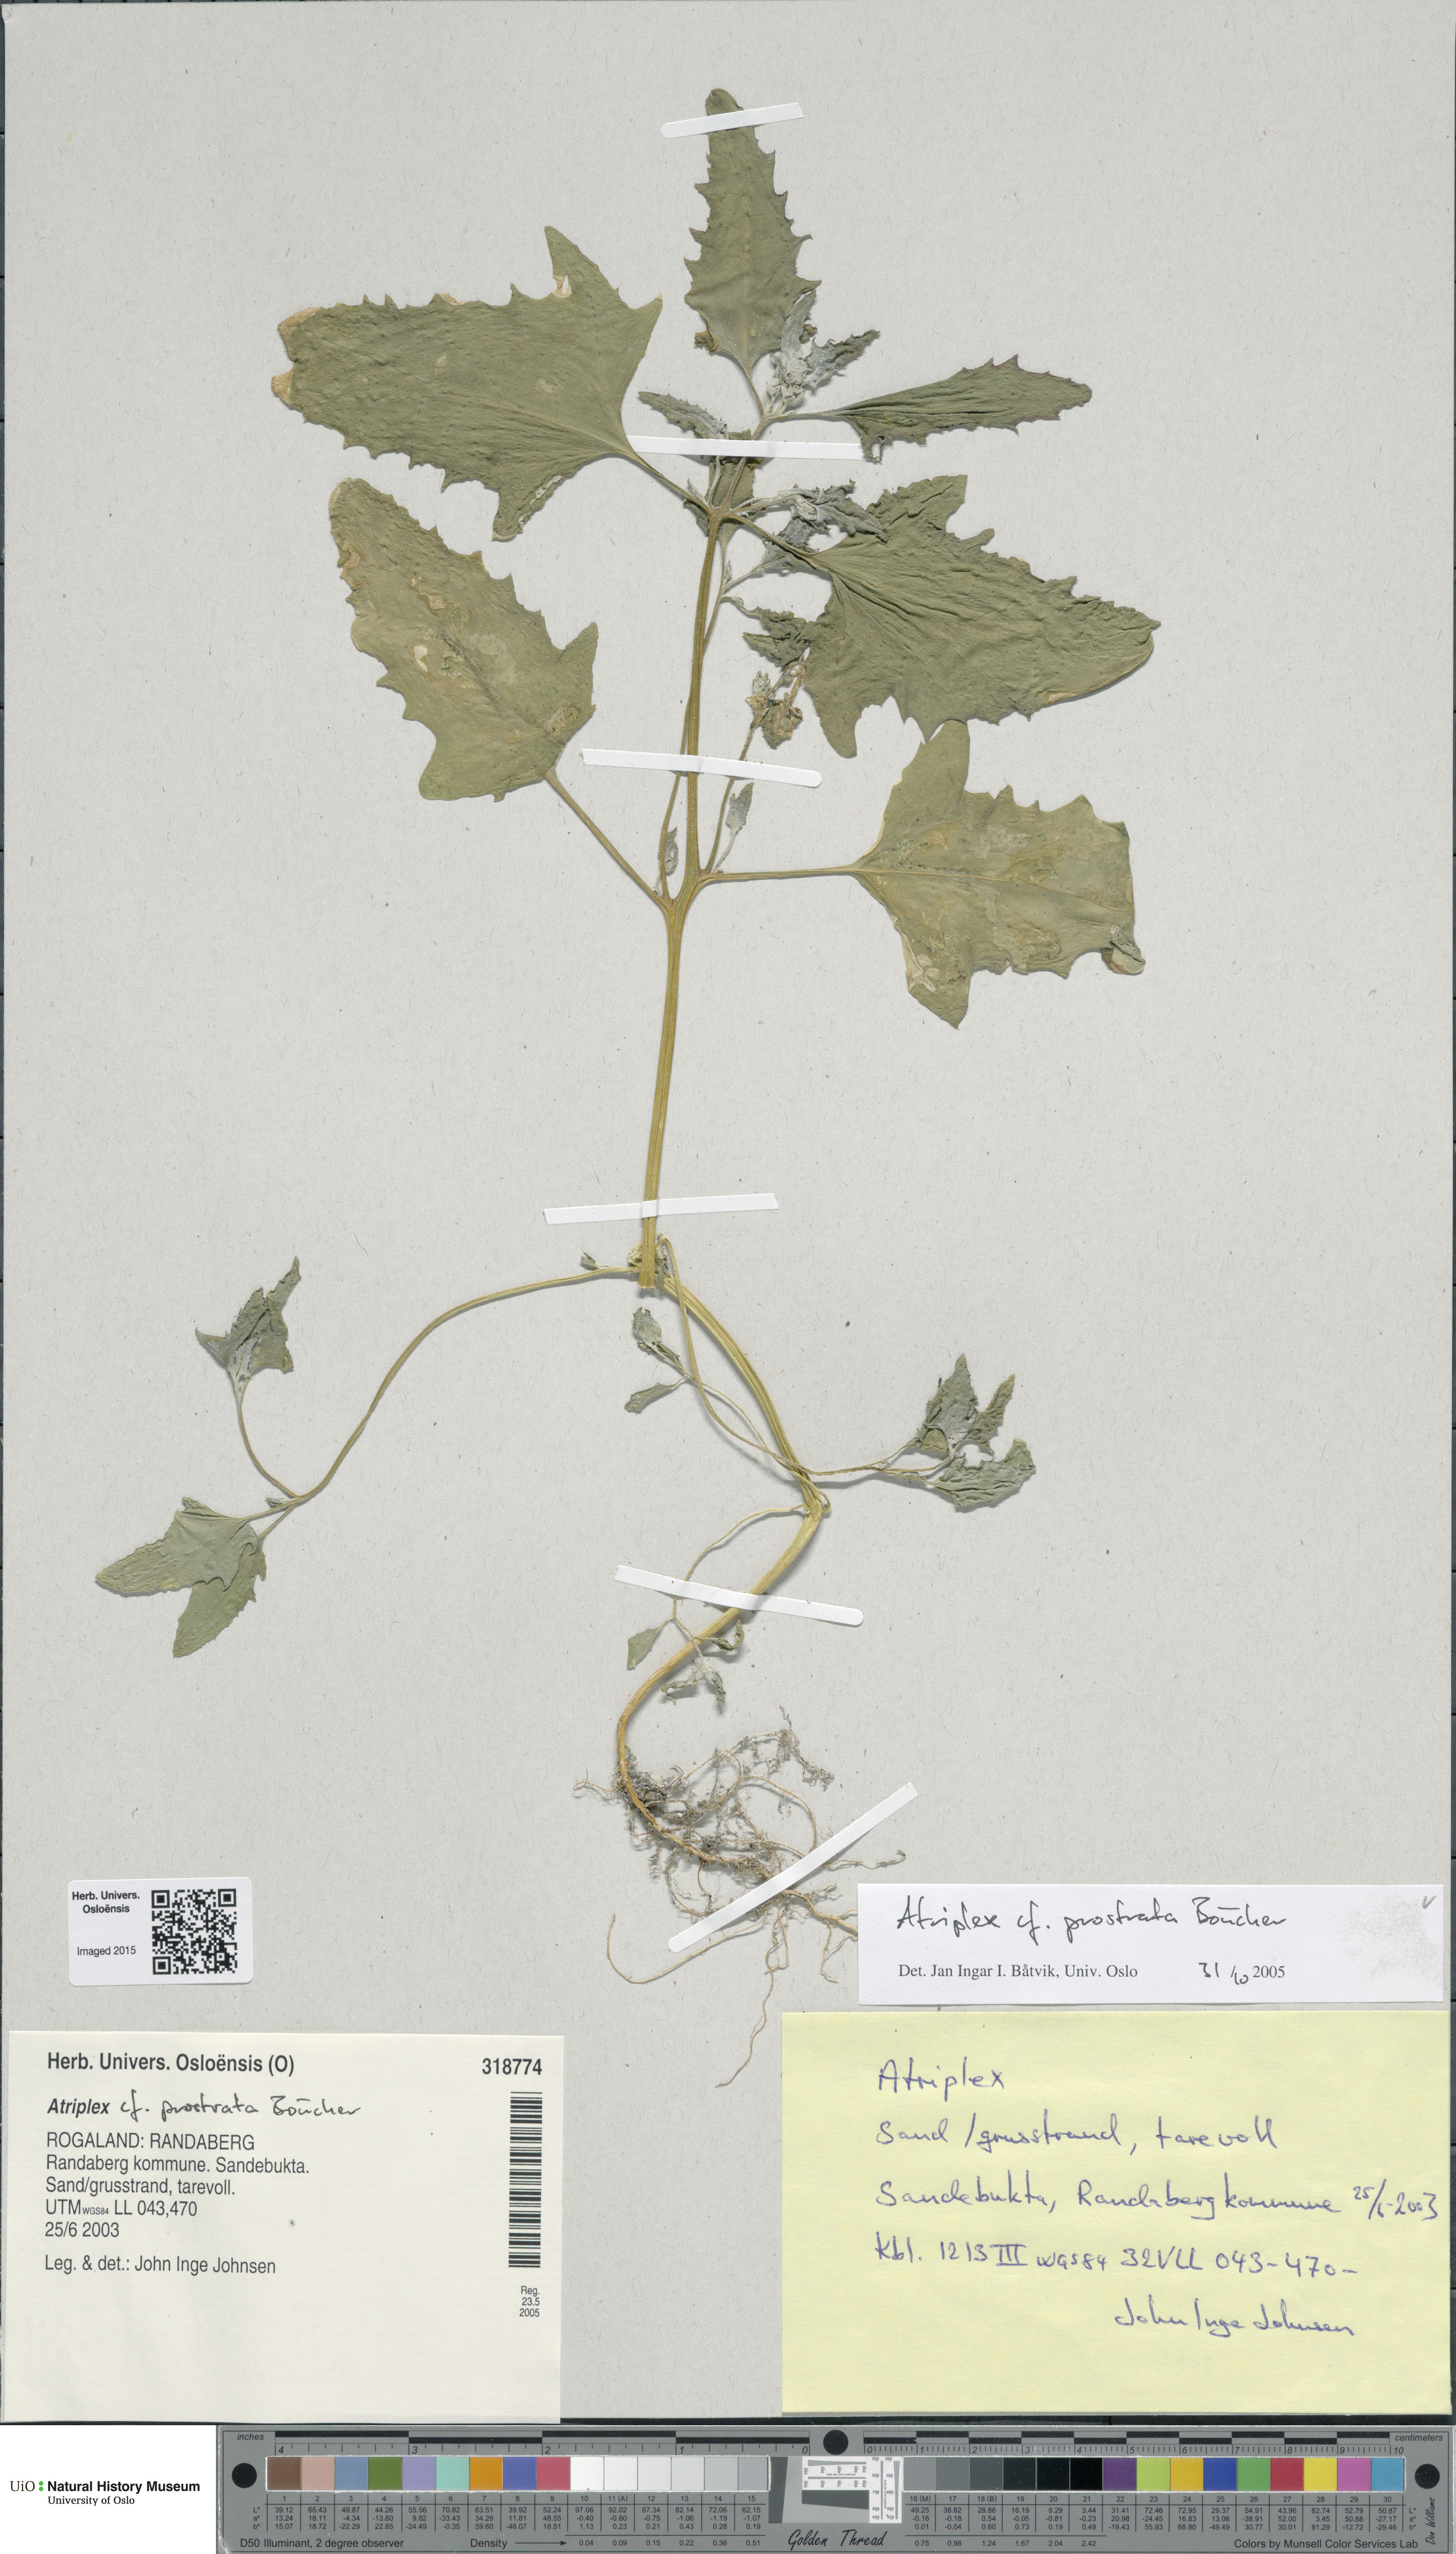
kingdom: Plantae
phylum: Tracheophyta
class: Magnoliopsida
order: Caryophyllales
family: Amaranthaceae
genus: Atriplex
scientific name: Atriplex prostrata
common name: Spear-leaved orache
